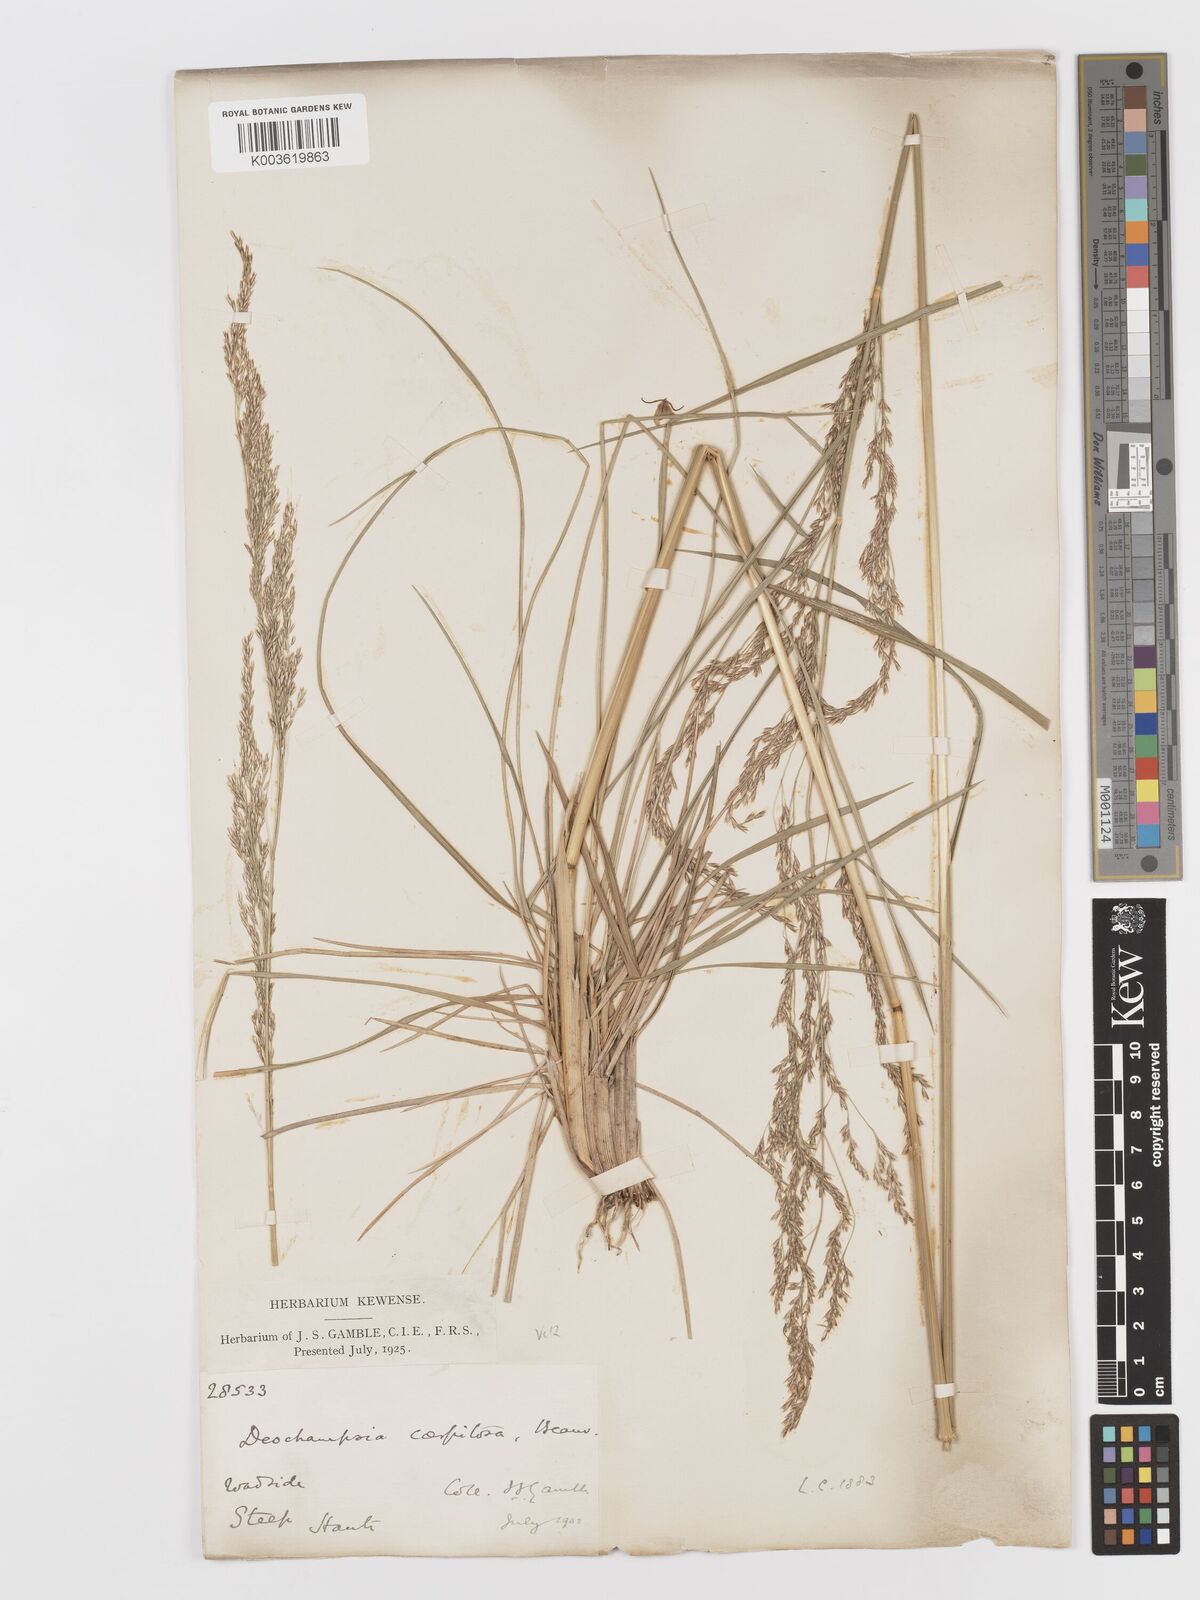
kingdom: Plantae
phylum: Tracheophyta
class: Liliopsida
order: Poales
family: Poaceae
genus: Deschampsia
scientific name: Deschampsia cespitosa
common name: Tufted hair-grass
